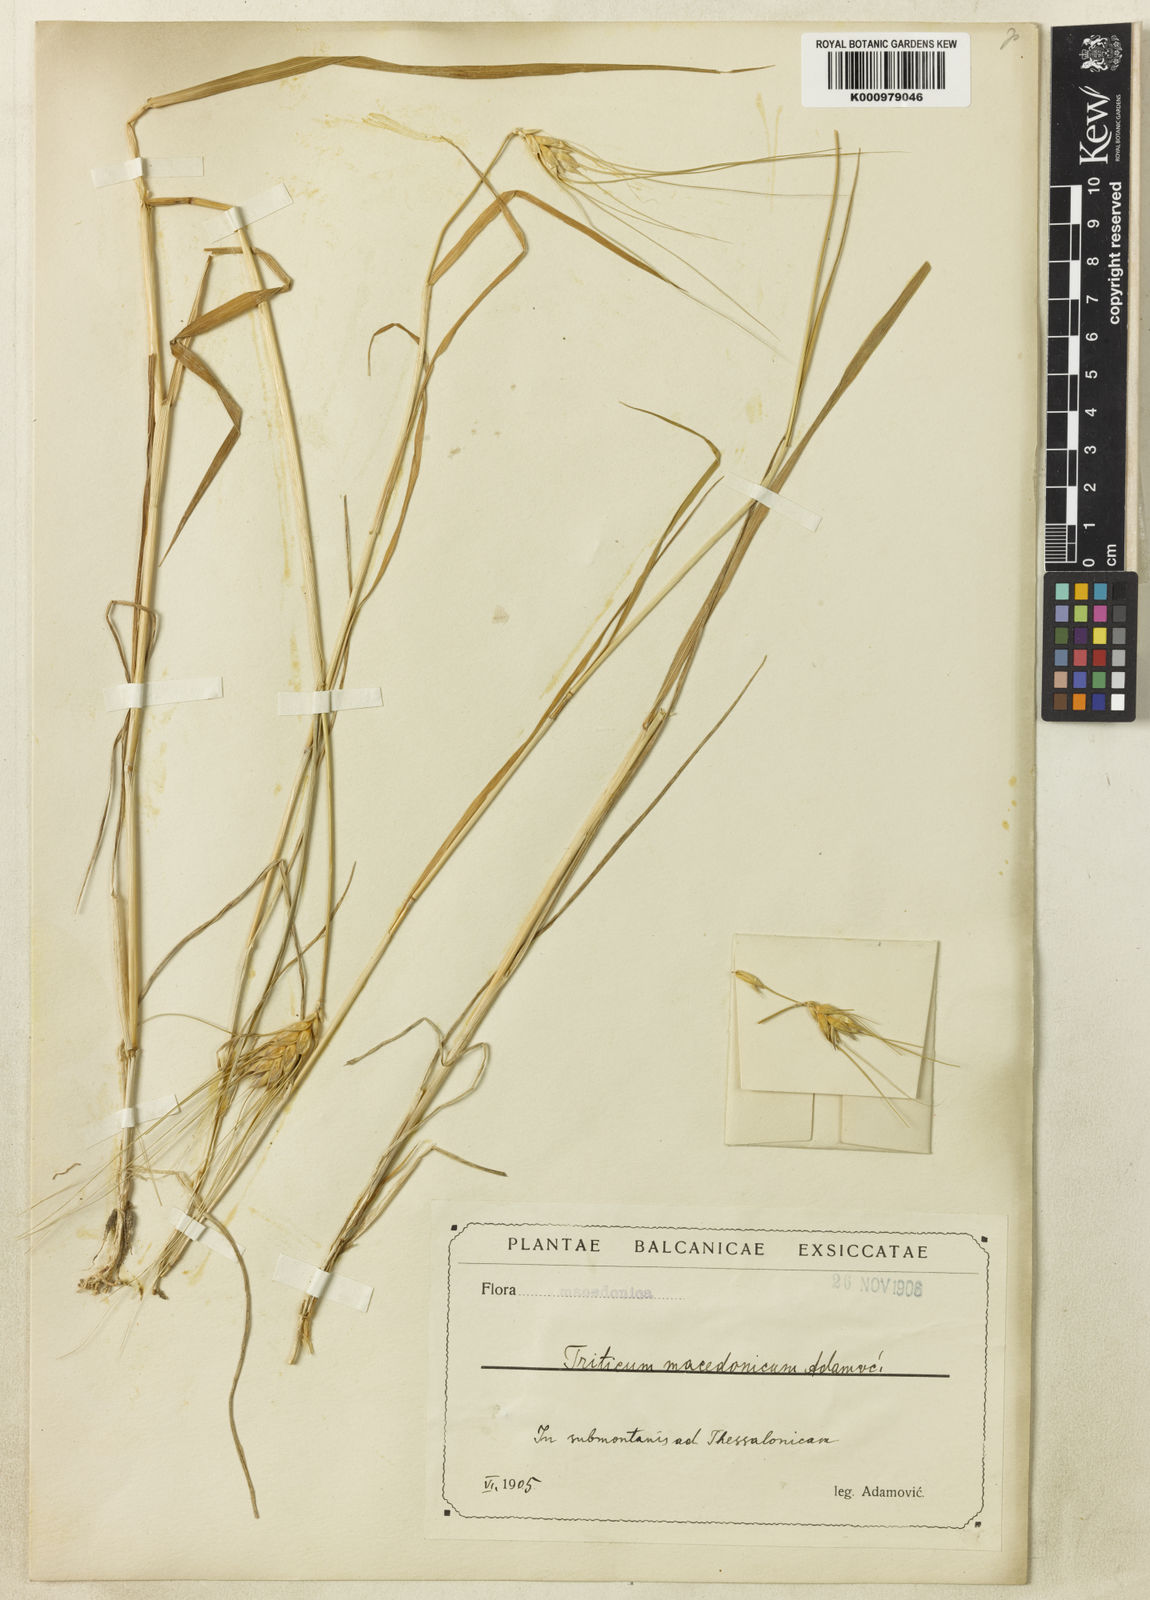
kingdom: Plantae
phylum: Tracheophyta
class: Liliopsida
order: Poales
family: Poaceae
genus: Triticum
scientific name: Triticum aestivum
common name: Common wheat
